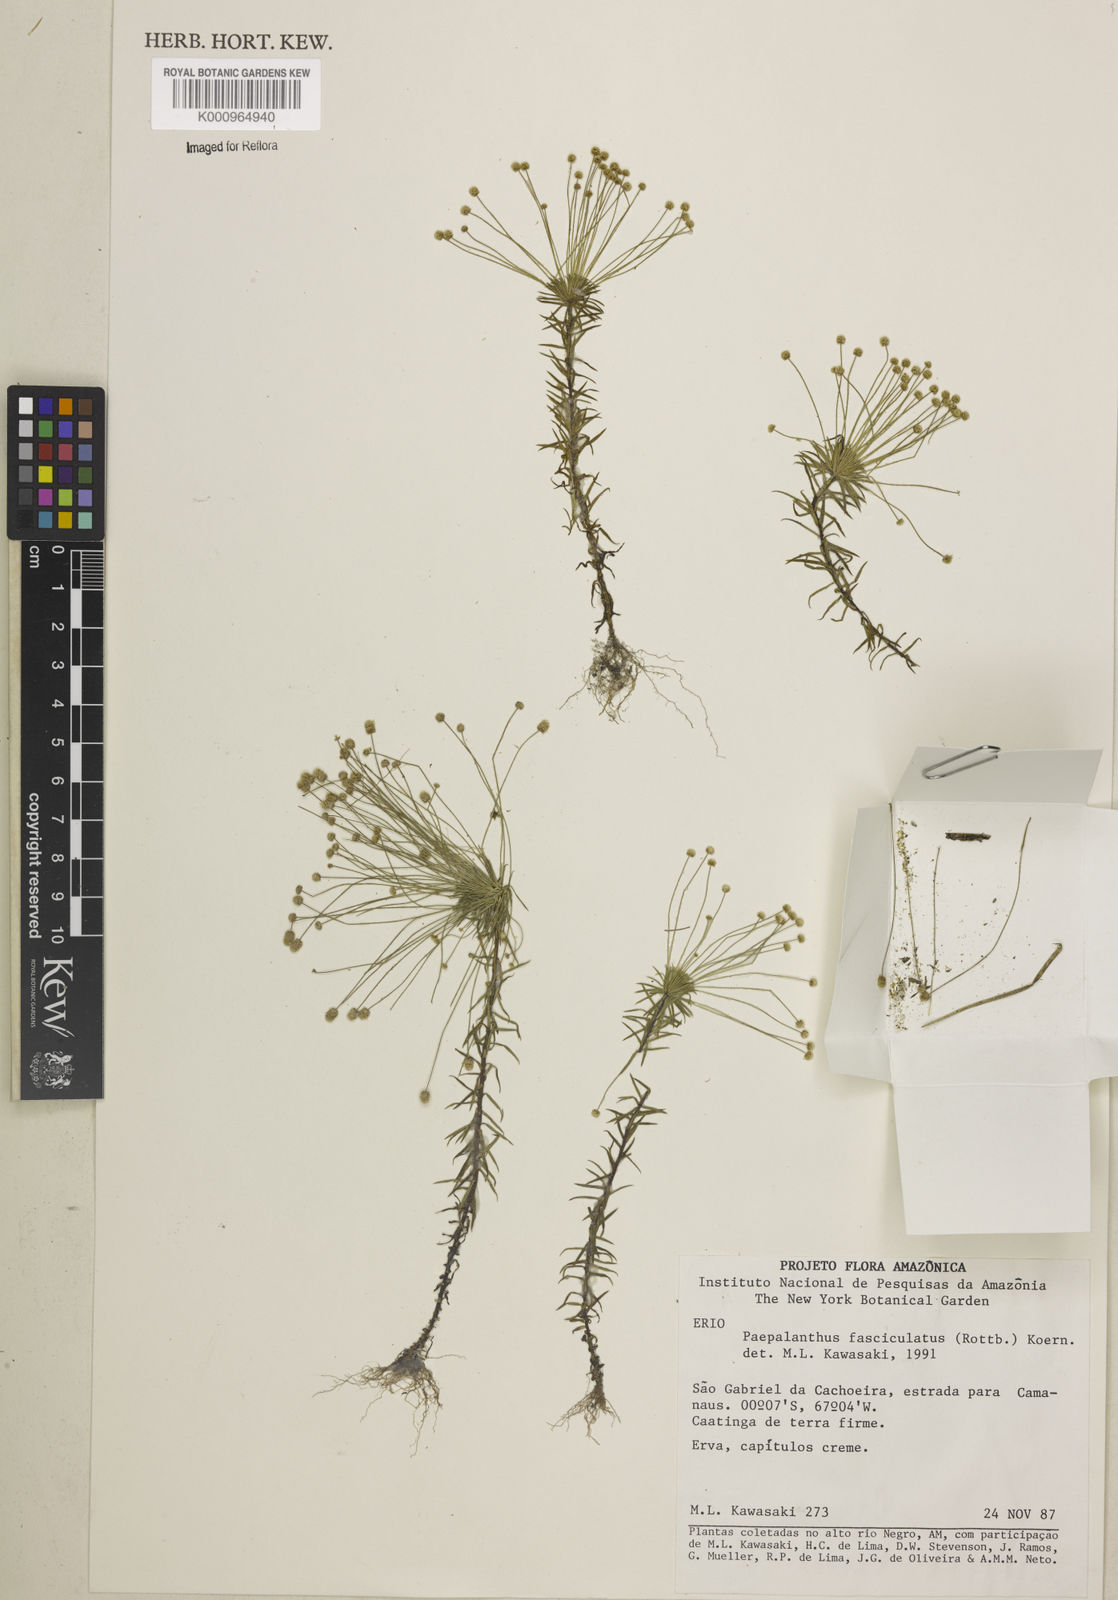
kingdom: Plantae
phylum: Tracheophyta
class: Liliopsida
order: Poales
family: Eriocaulaceae
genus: Paepalanthus
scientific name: Paepalanthus fasciculatus
